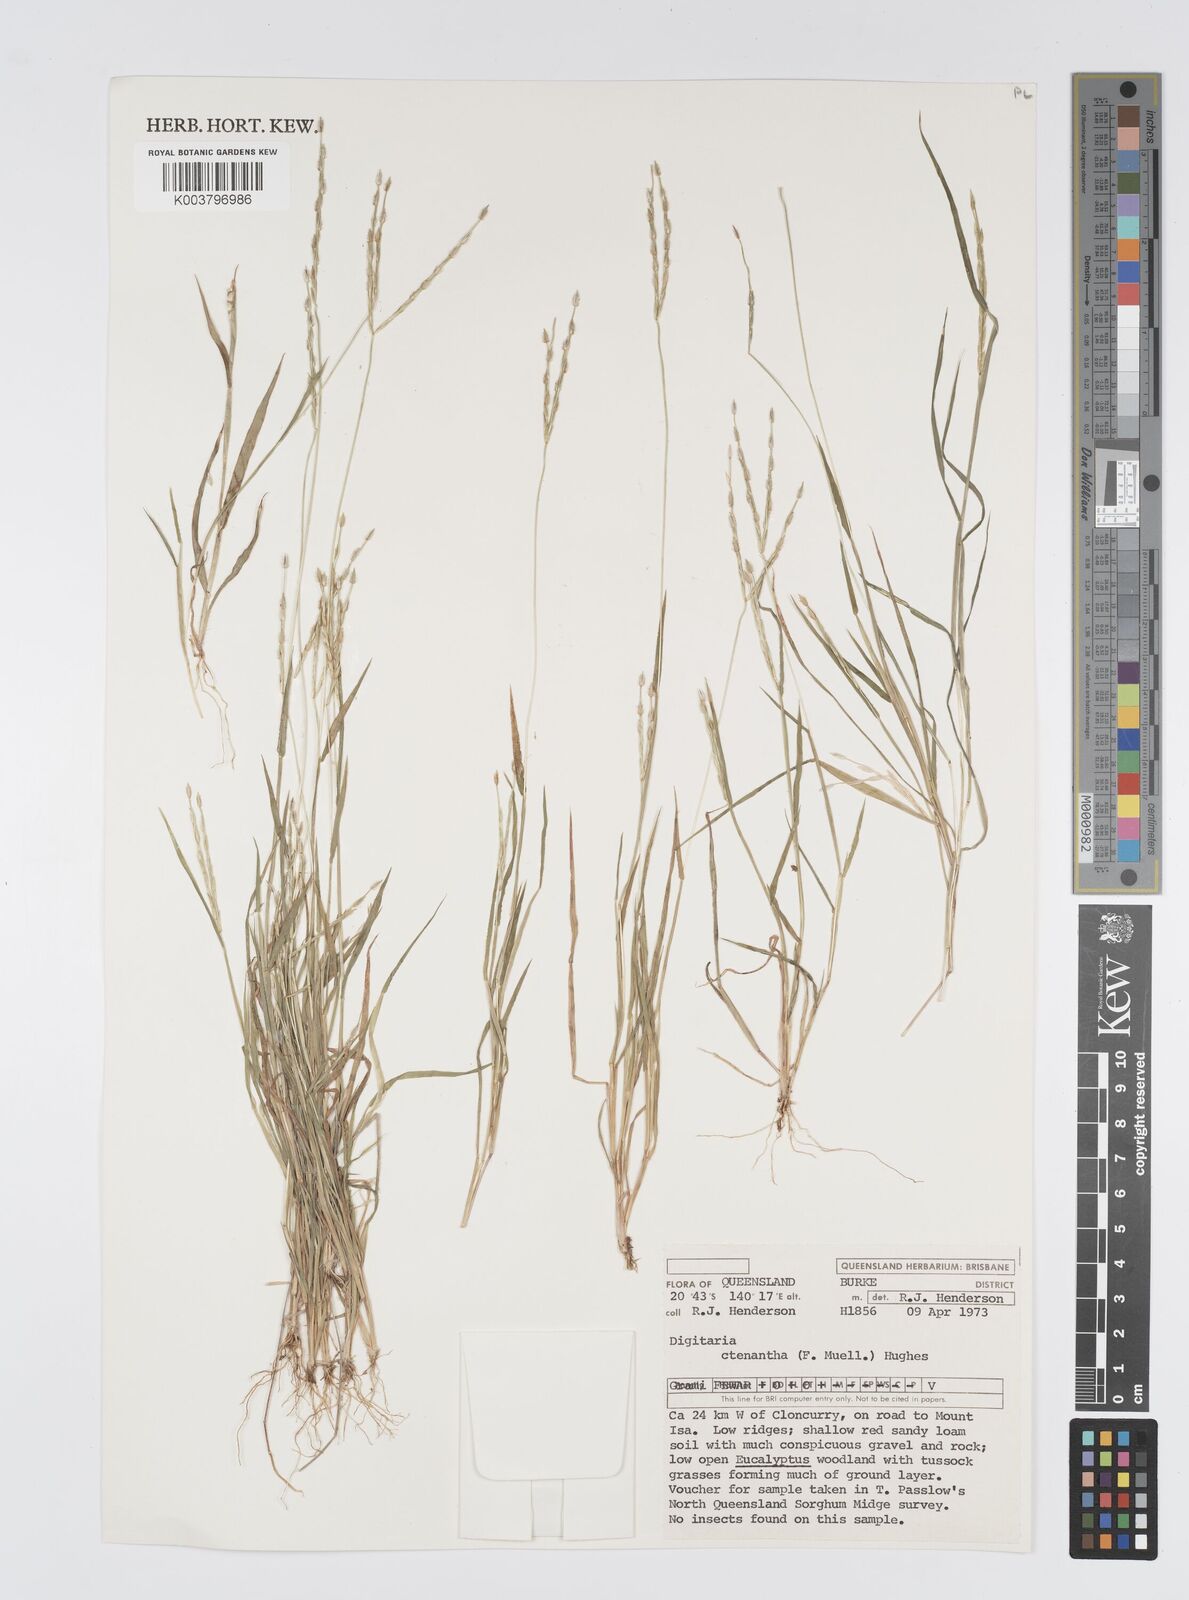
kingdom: Plantae
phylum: Tracheophyta
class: Liliopsida
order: Poales
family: Poaceae
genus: Digitaria
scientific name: Digitaria ctenantha
